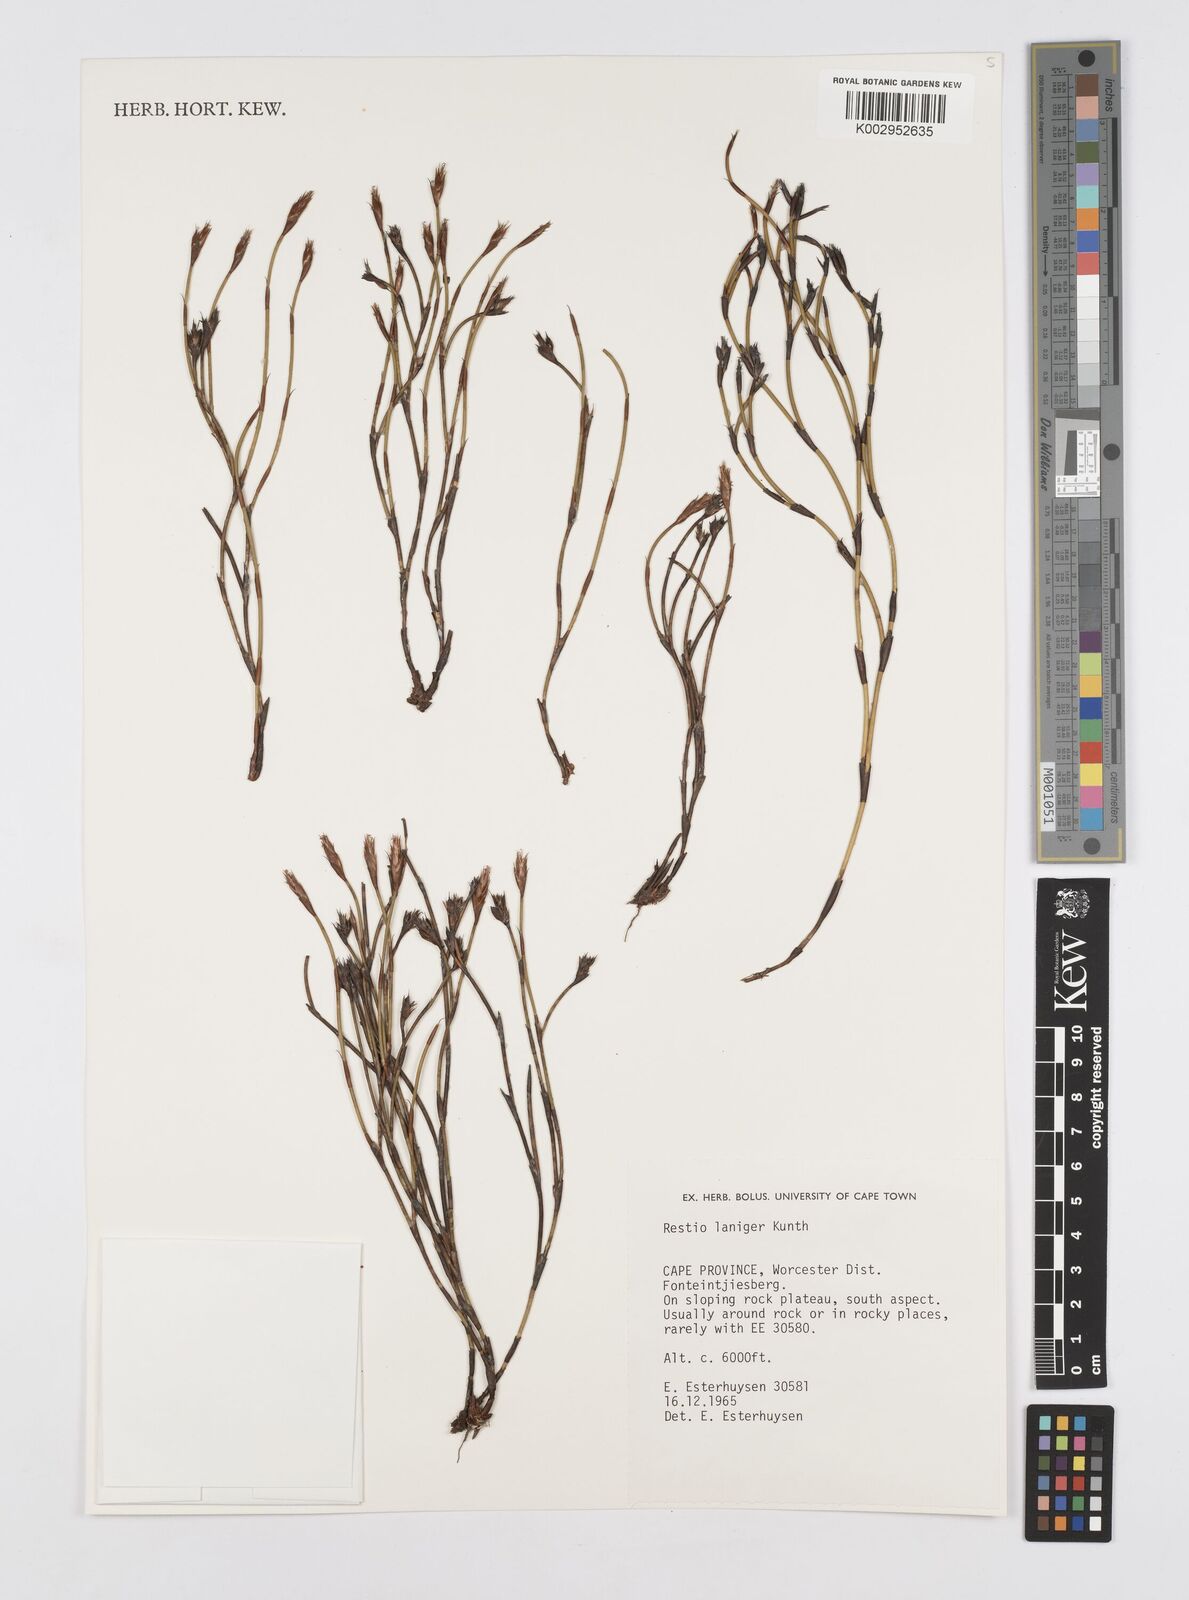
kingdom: Plantae
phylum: Tracheophyta
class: Liliopsida
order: Poales
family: Restionaceae
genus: Restio
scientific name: Restio laniger
